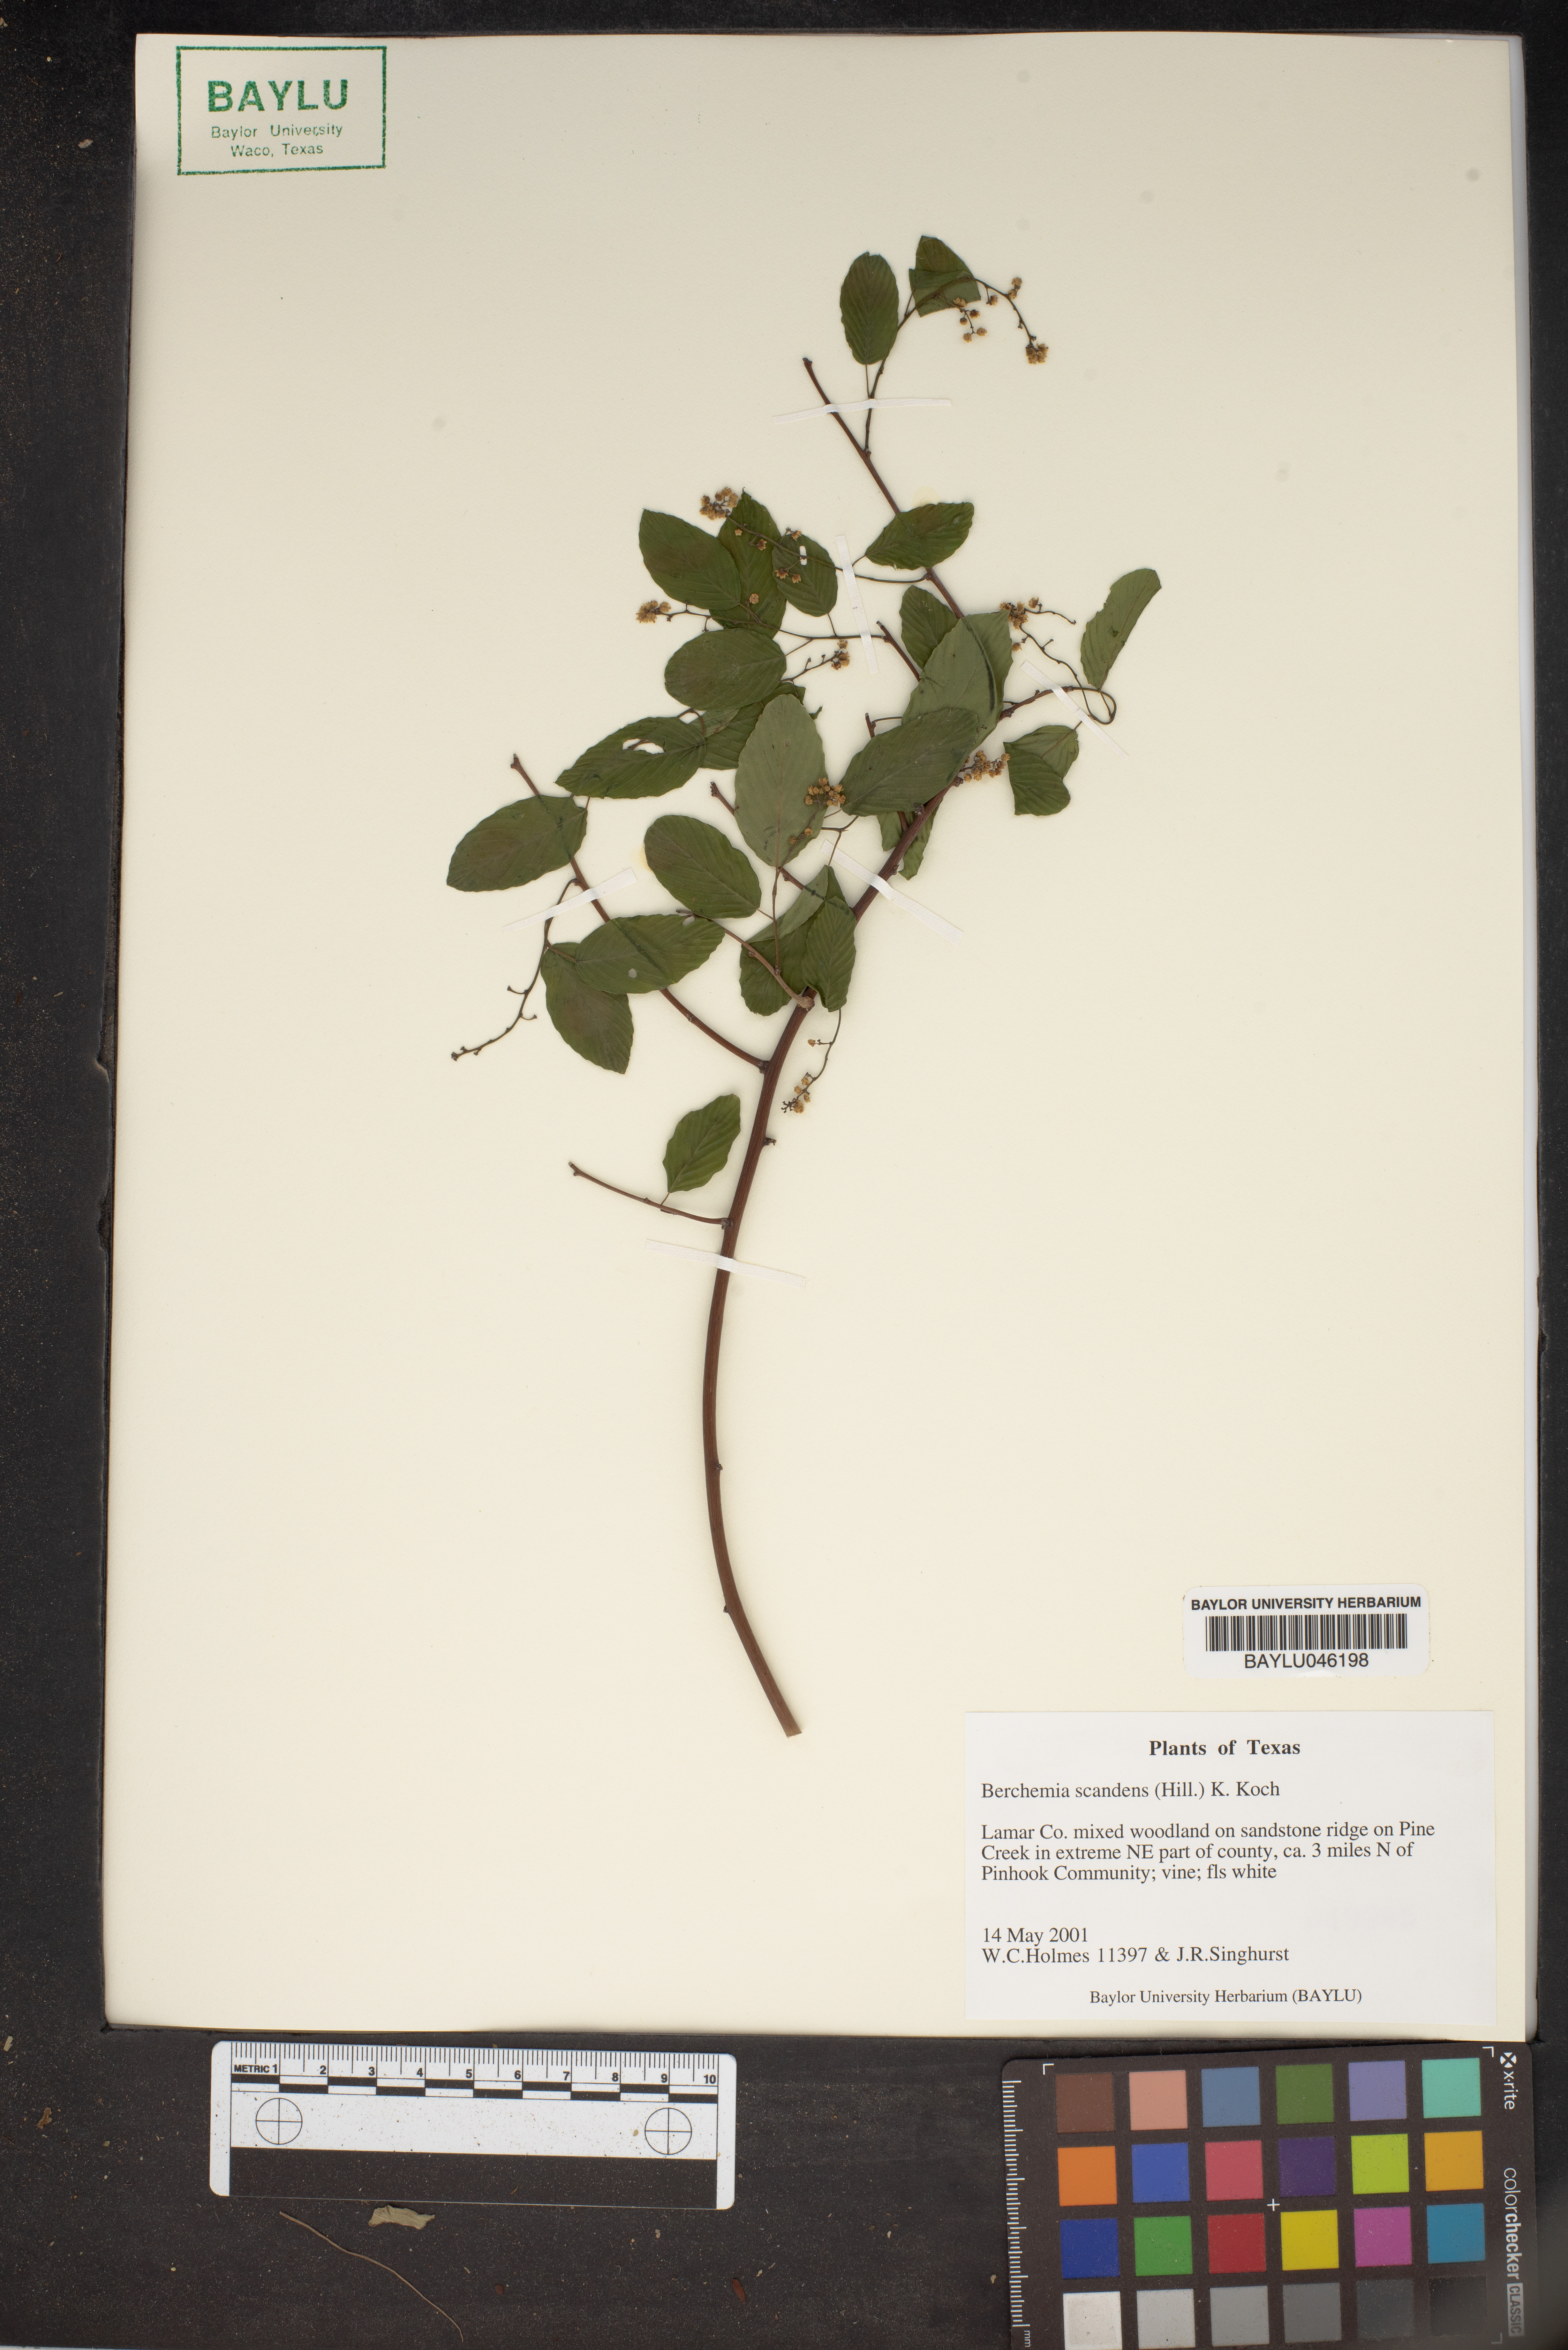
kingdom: Plantae
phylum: Tracheophyta
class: Magnoliopsida
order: Rosales
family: Rhamnaceae
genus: Berchemia
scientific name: Berchemia scandens
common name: Supplejack
